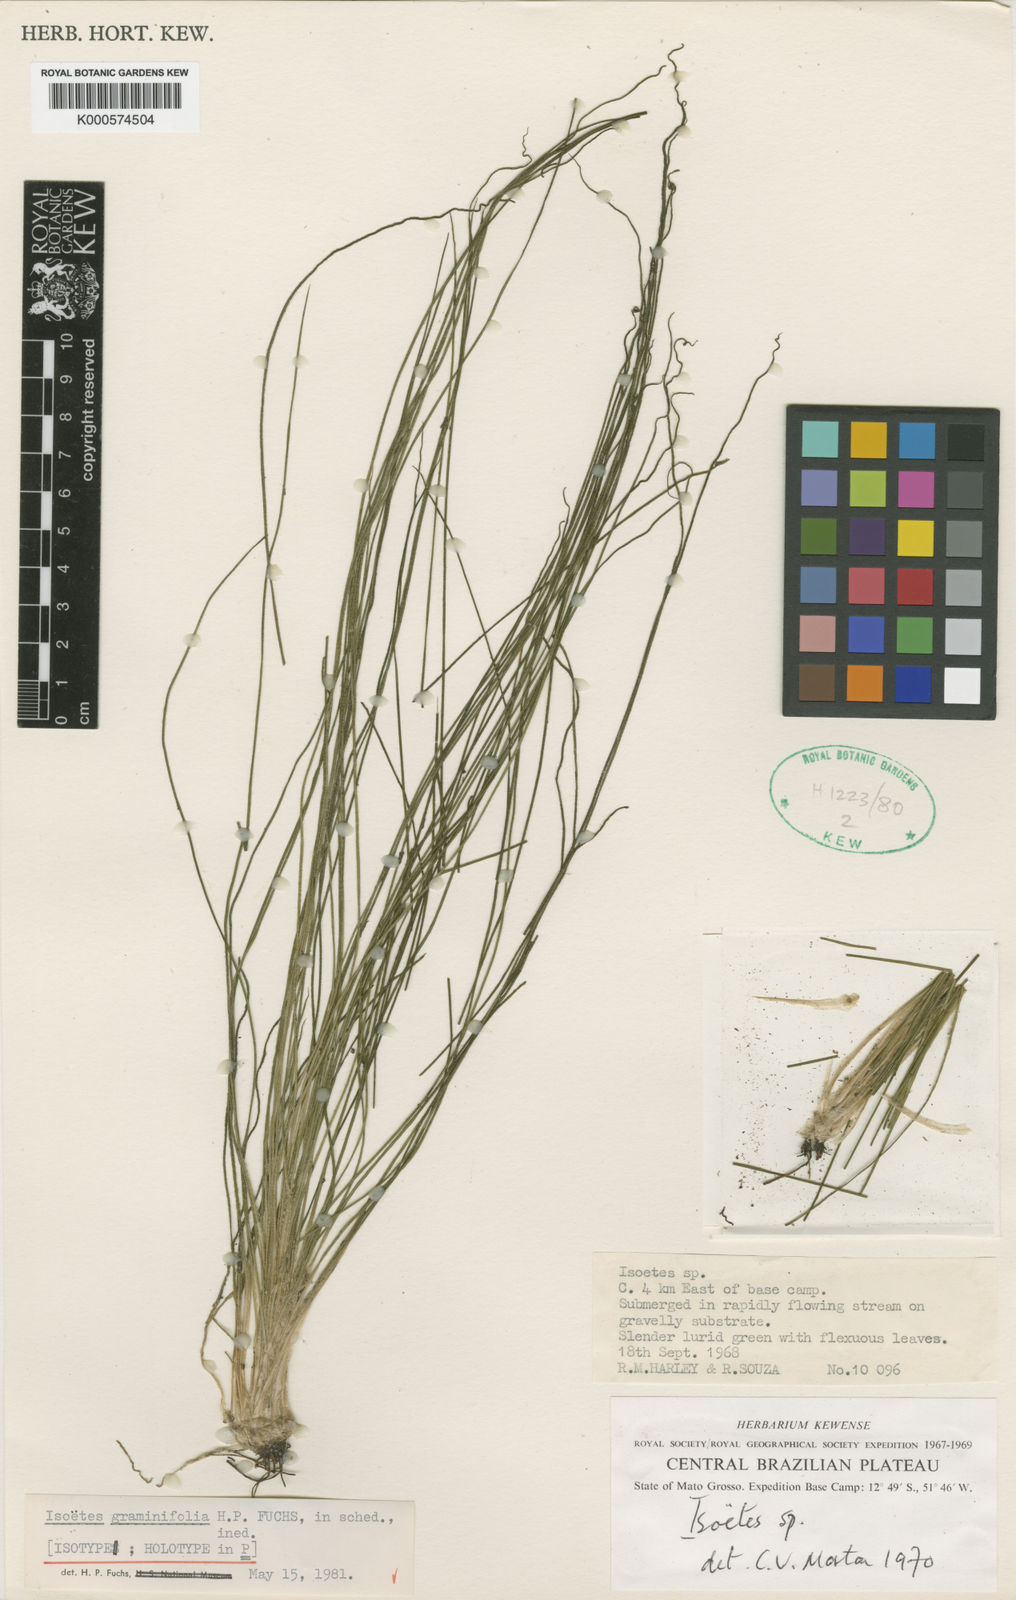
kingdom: Plantae
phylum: Tracheophyta
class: Lycopodiopsida
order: Isoetales
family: Isoetaceae
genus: Isoetes
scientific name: Isoetes panamensis
